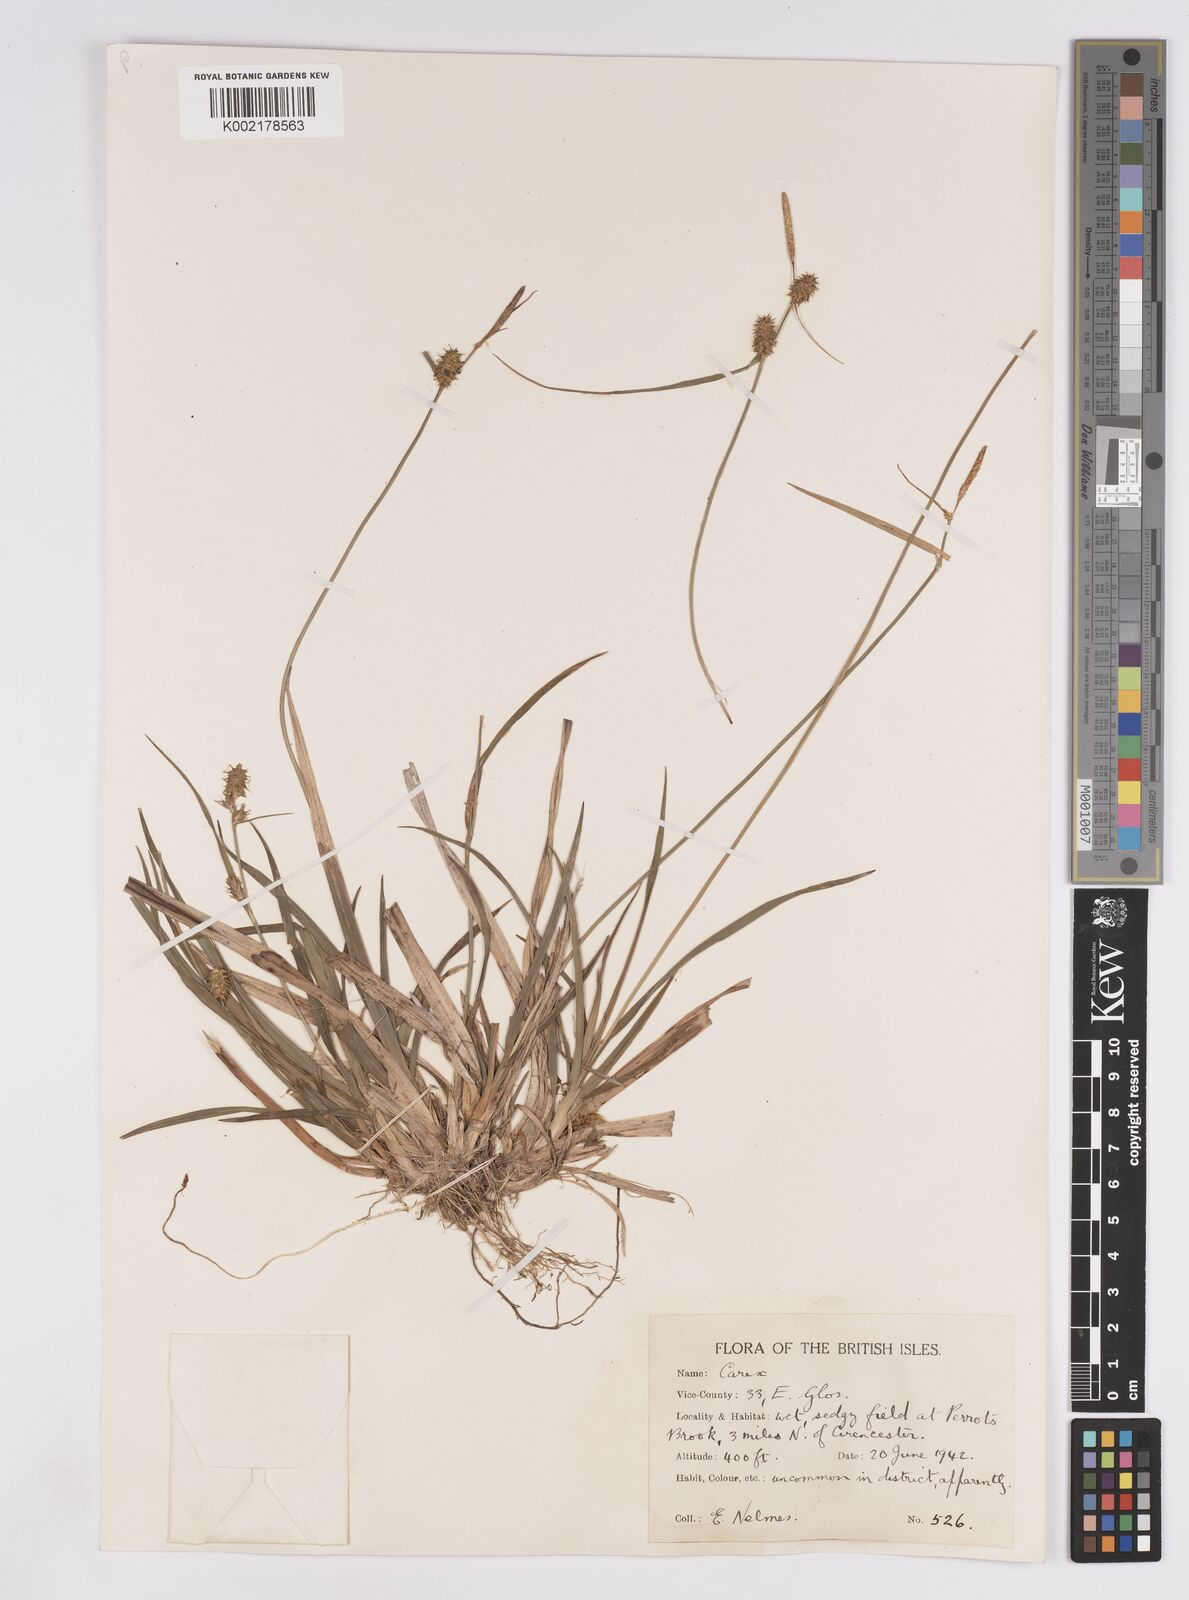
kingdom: Plantae
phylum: Tracheophyta
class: Liliopsida
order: Poales
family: Cyperaceae
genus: Carex
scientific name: Carex lepidocarpa
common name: Long-stalked yellow-sedge
